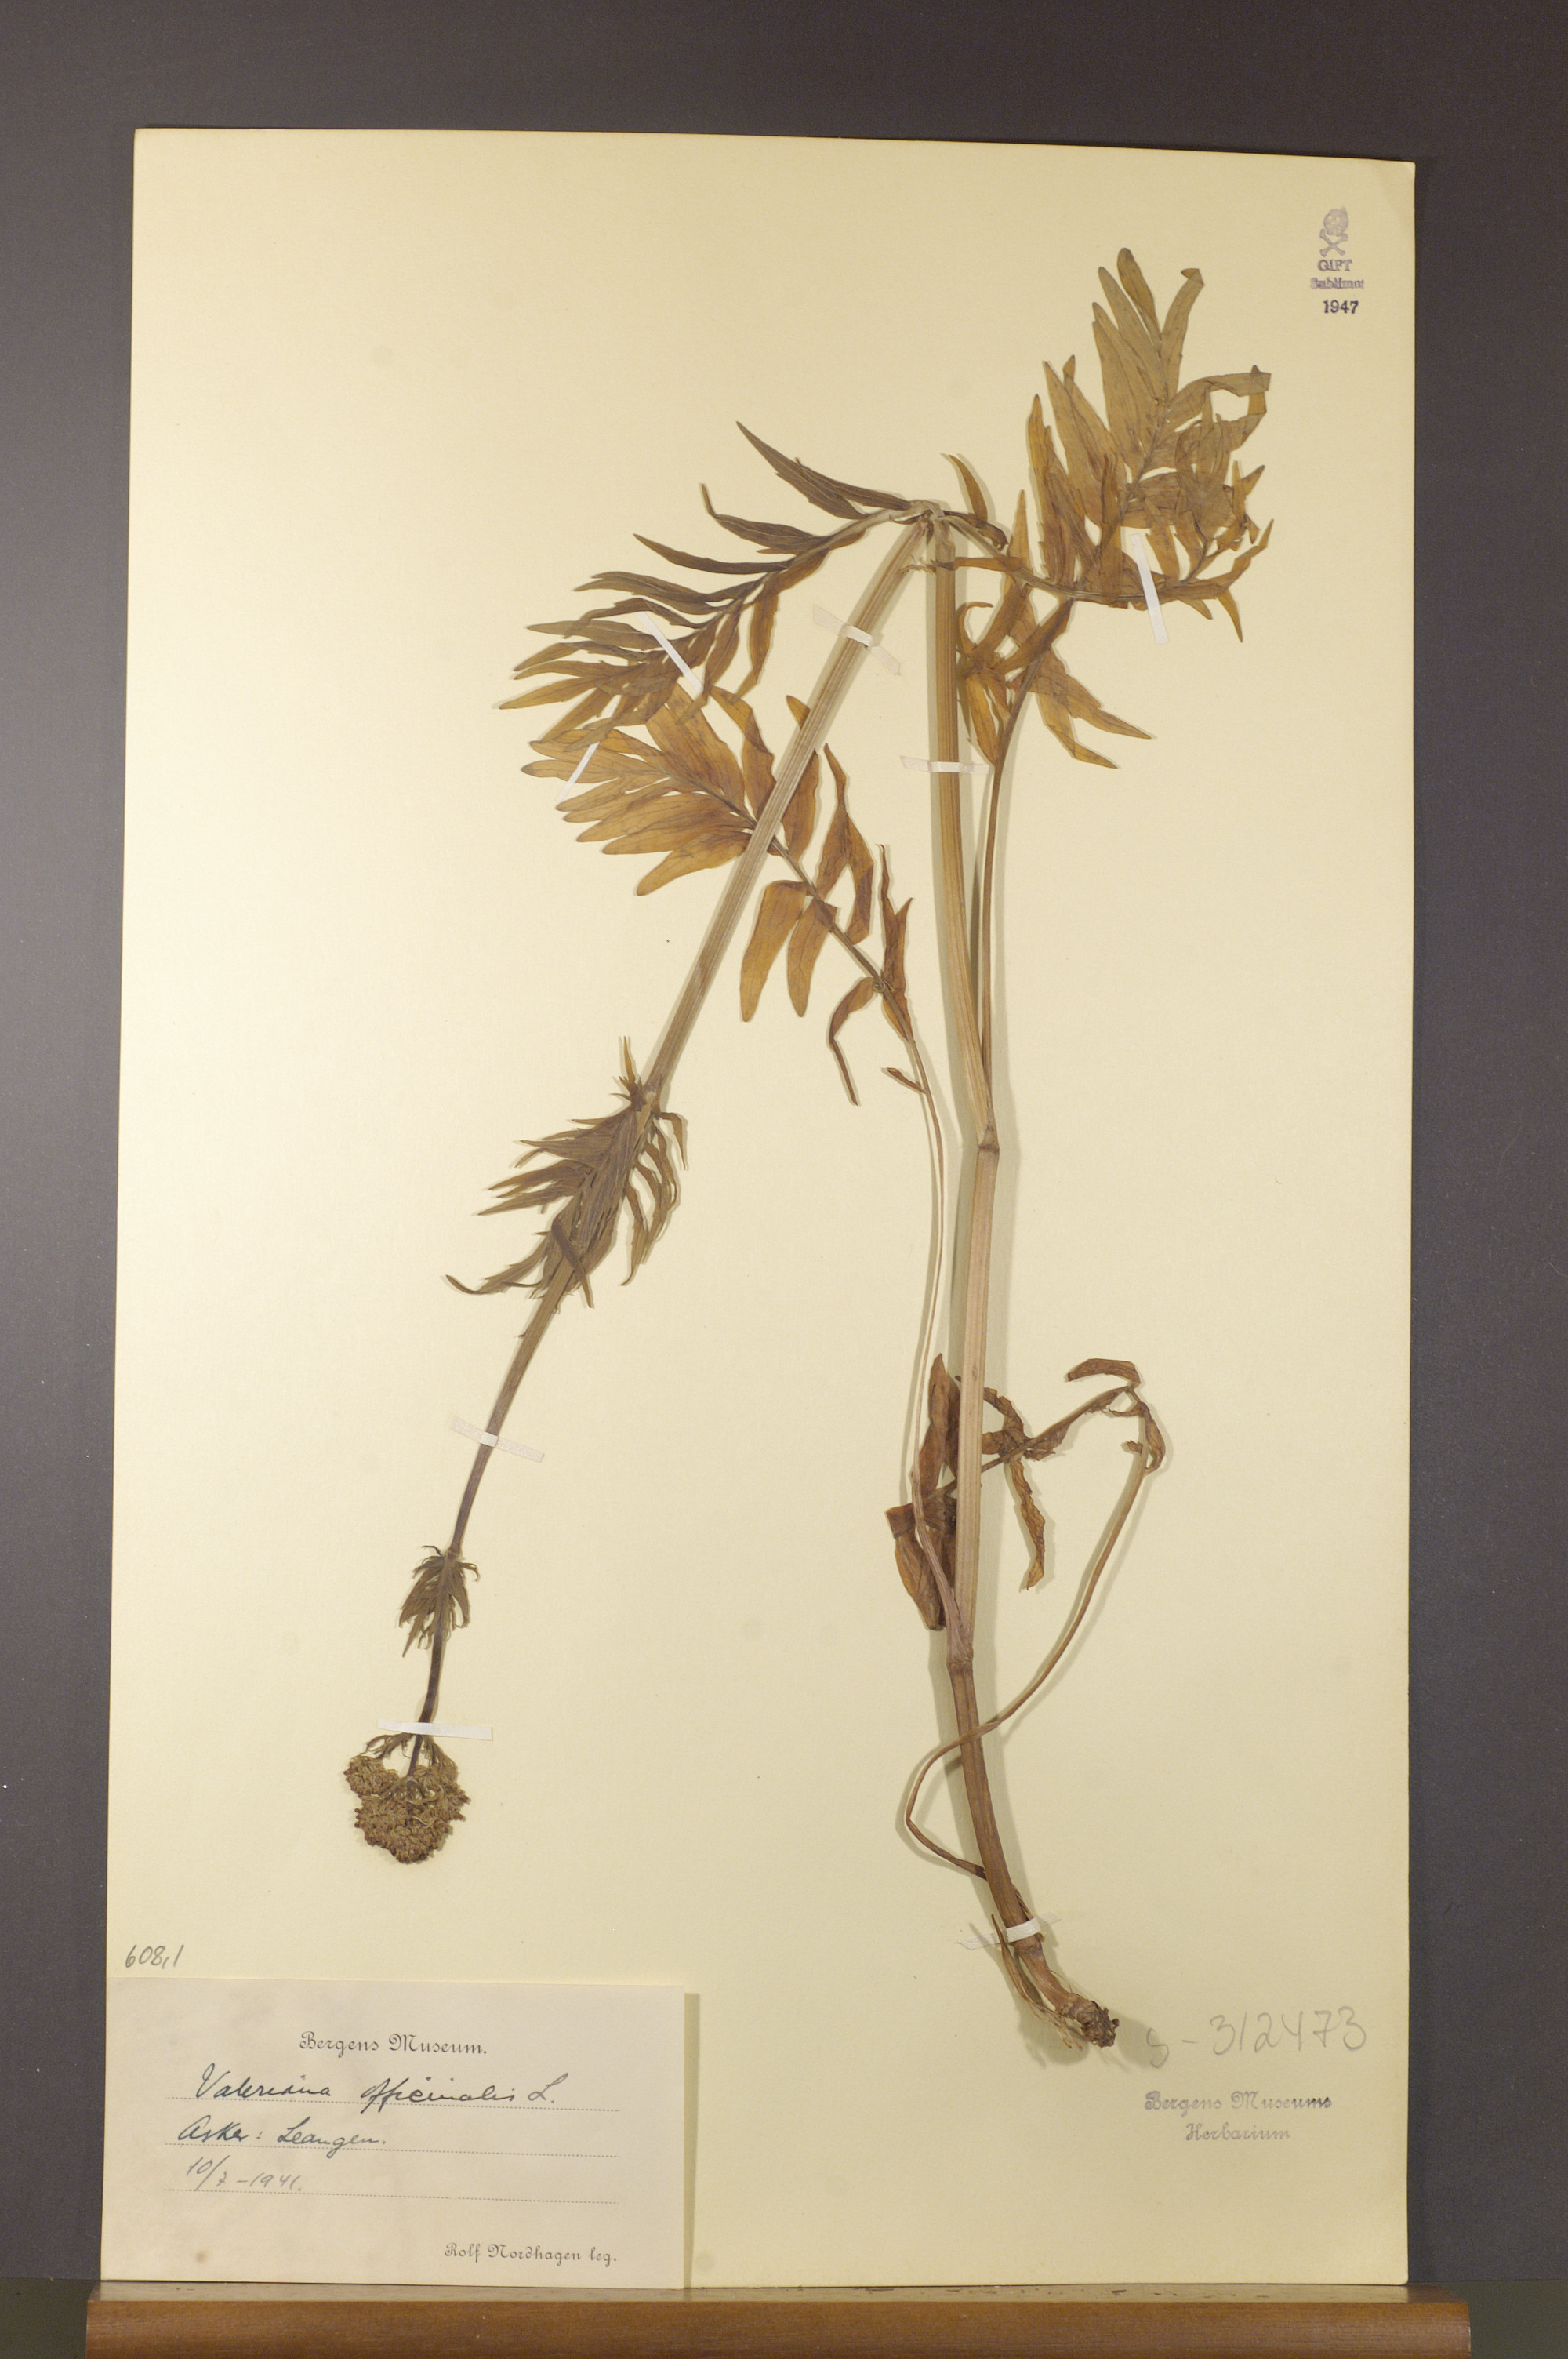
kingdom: Plantae
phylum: Tracheophyta
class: Magnoliopsida
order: Dipsacales
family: Caprifoliaceae
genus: Valeriana
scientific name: Valeriana officinalis
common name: Common valerian
